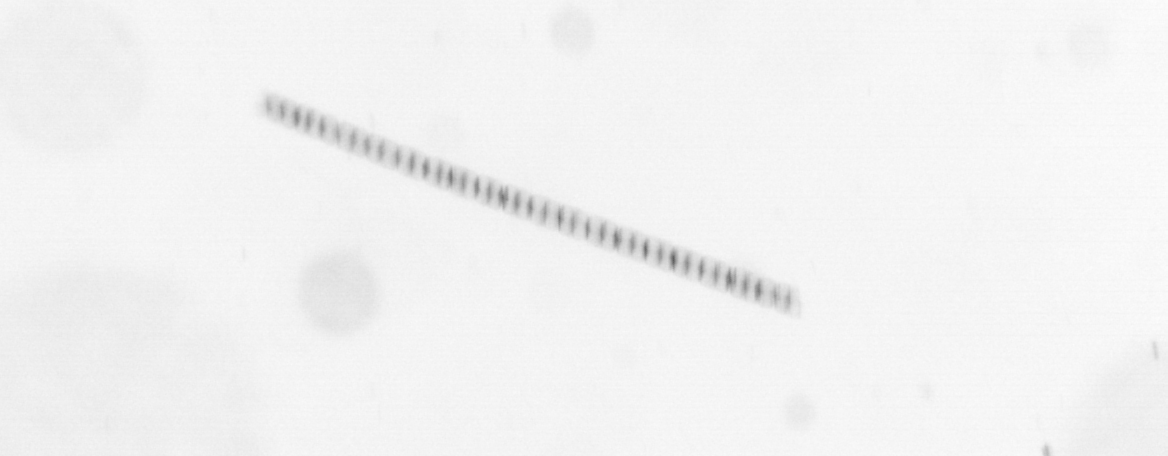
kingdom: Chromista
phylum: Ochrophyta
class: Bacillariophyceae
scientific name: Bacillariophyceae
